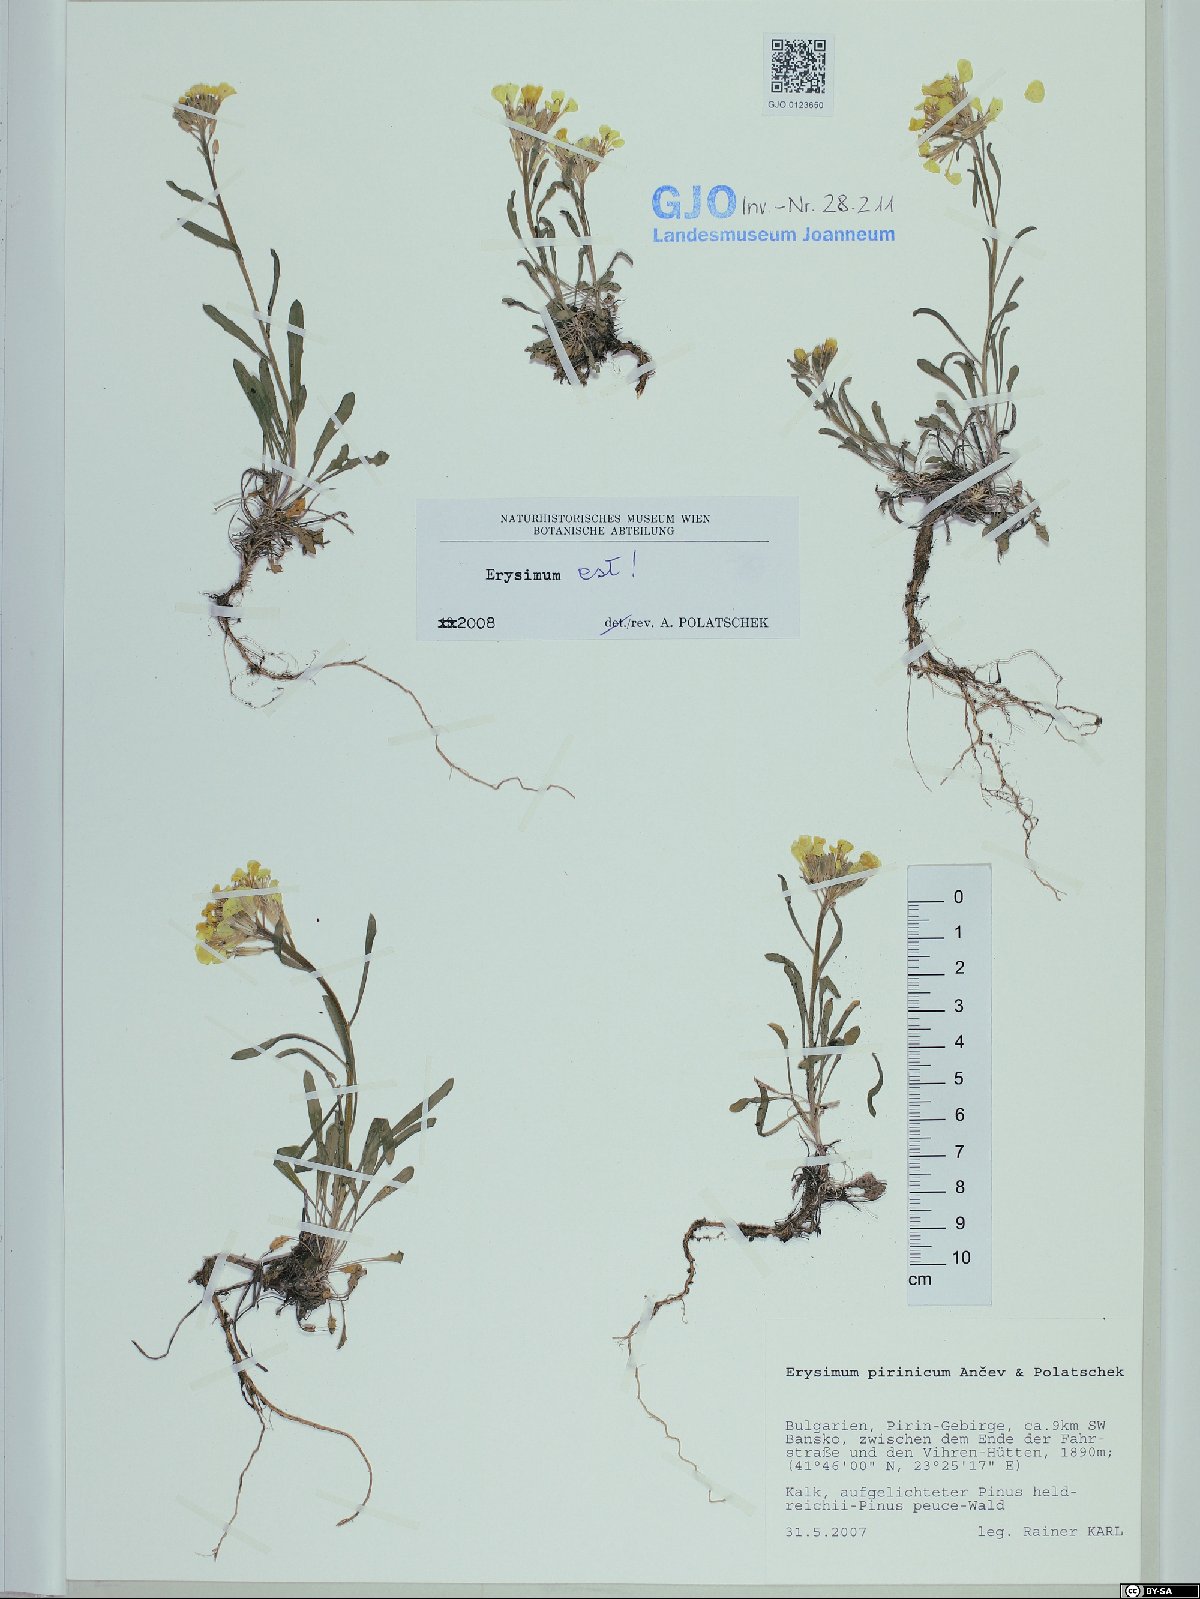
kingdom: Plantae
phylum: Tracheophyta
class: Magnoliopsida
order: Brassicales
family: Brassicaceae
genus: Erysimum
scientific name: Erysimum pirinicum
